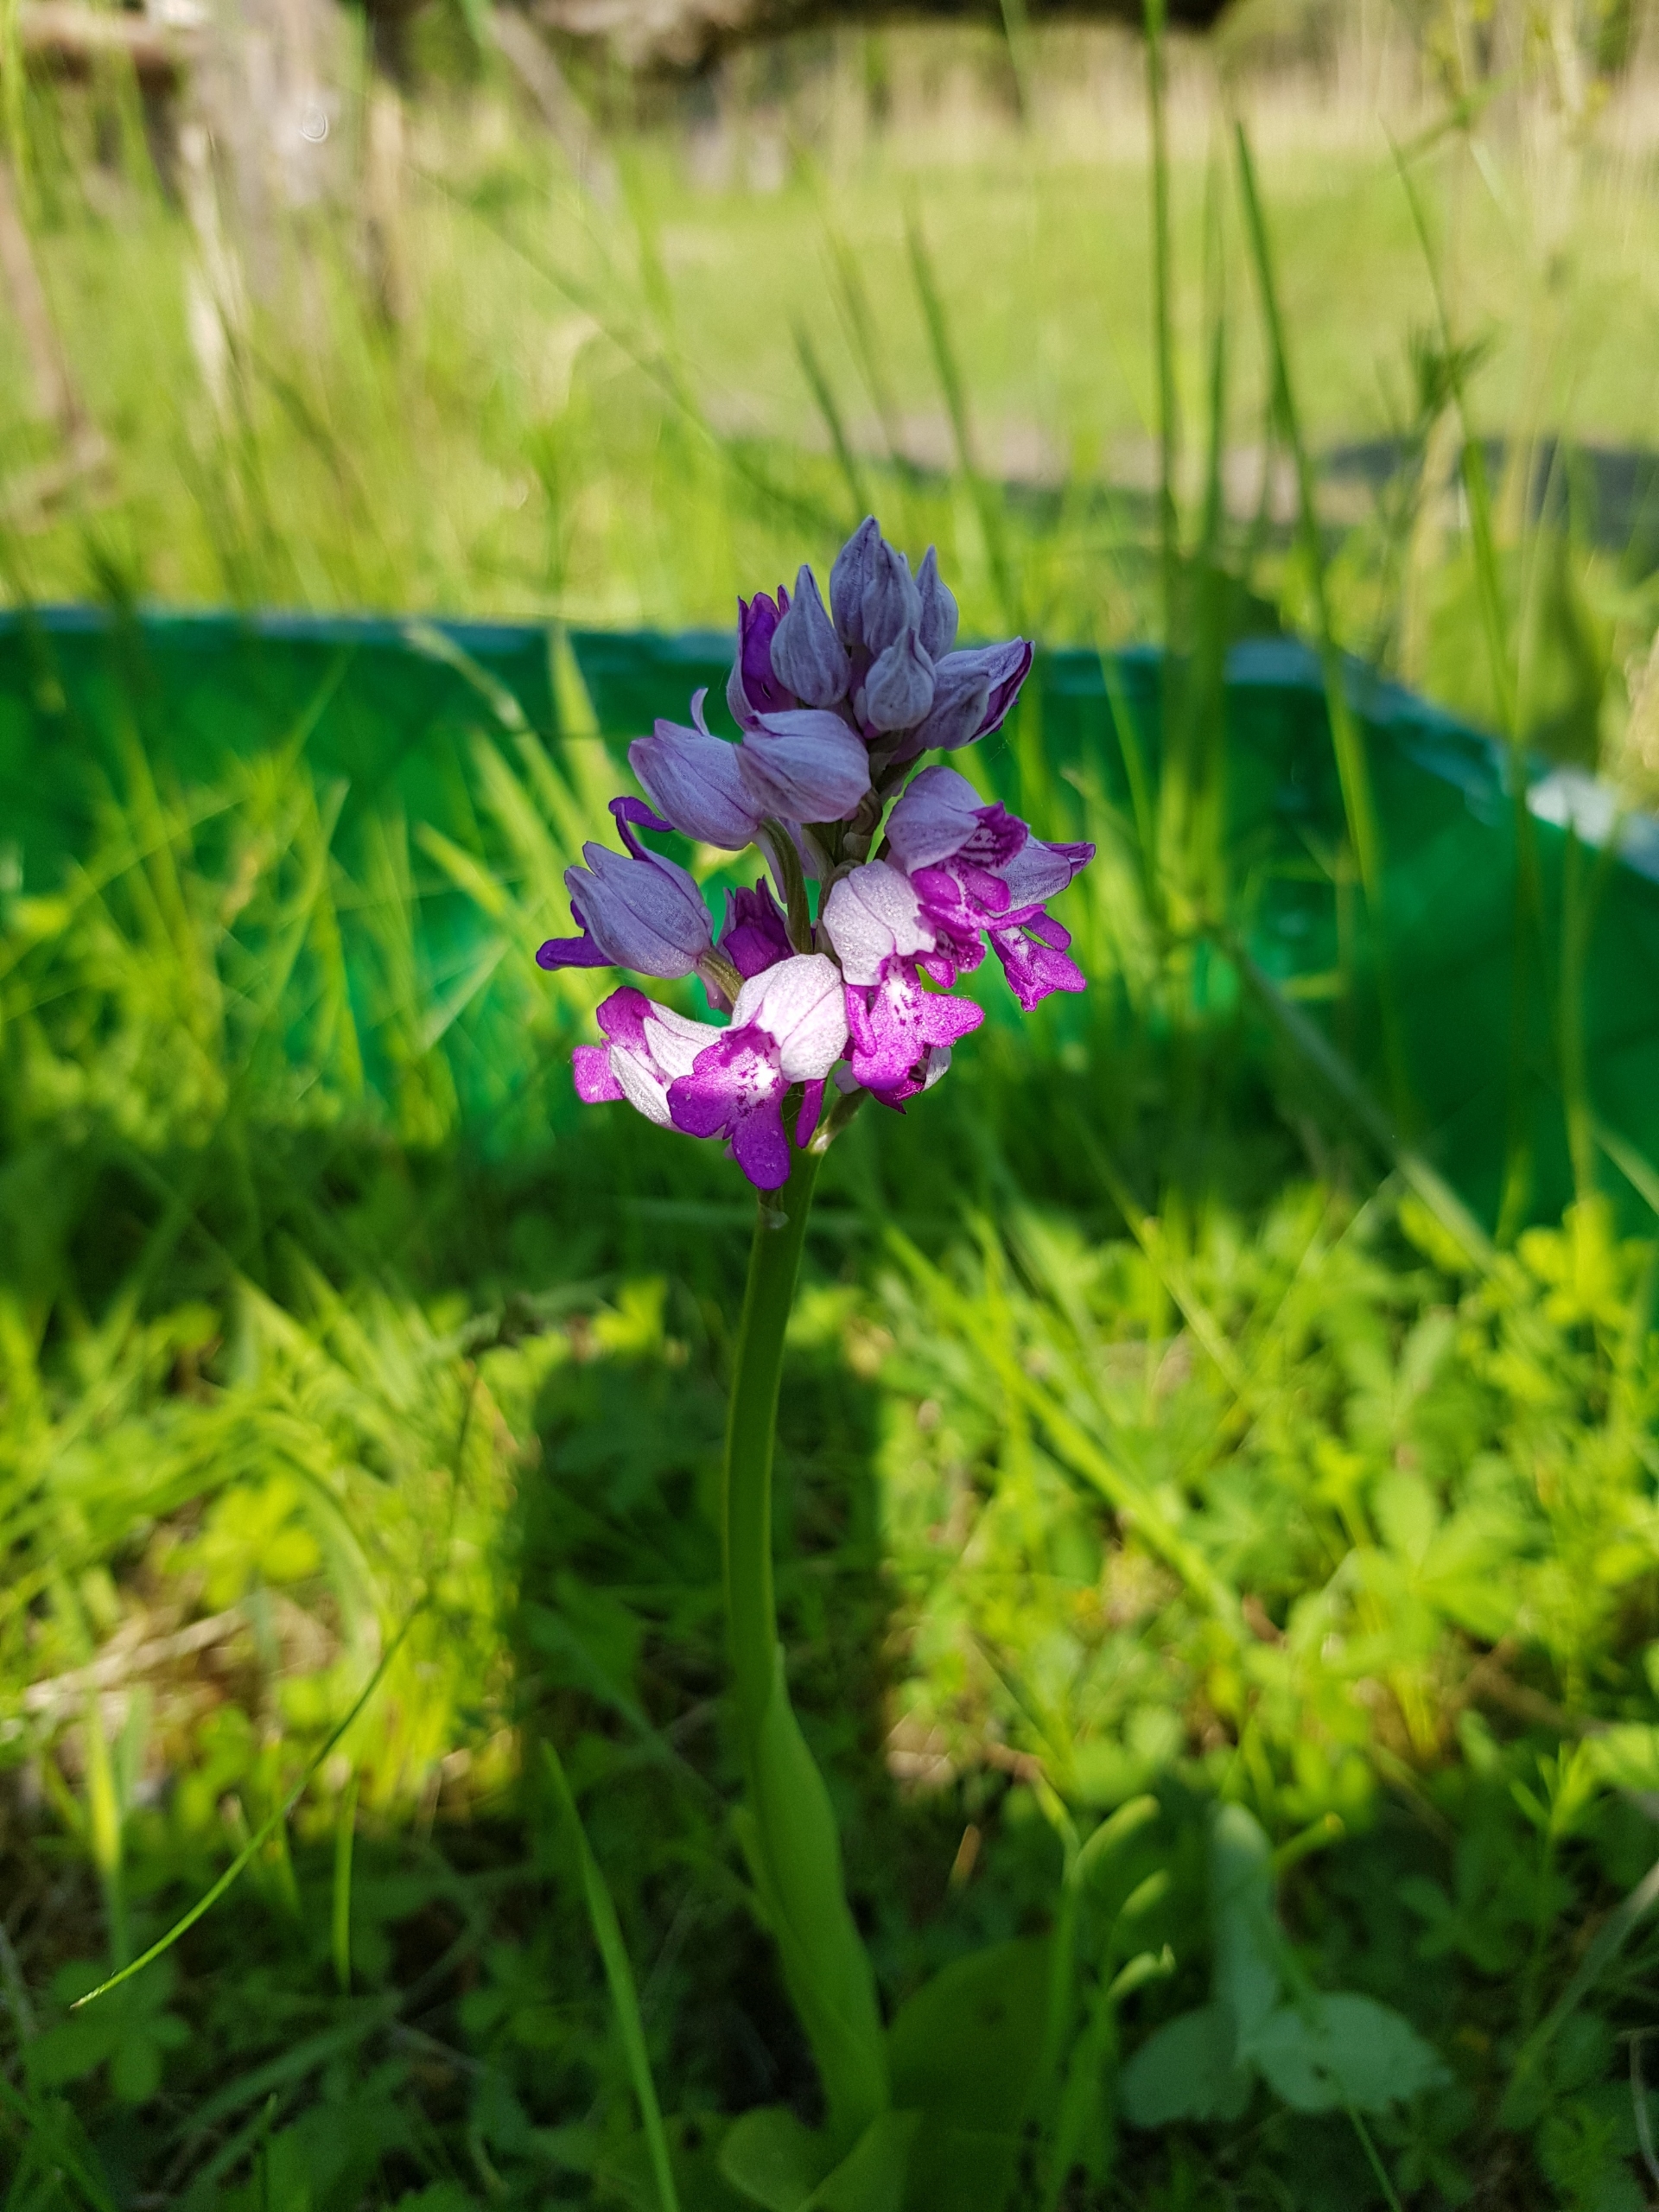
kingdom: Plantae
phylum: Tracheophyta
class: Liliopsida
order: Asparagales
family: Orchidaceae
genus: Orchis
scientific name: Orchis militaris
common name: Ridder-gøgeurt
